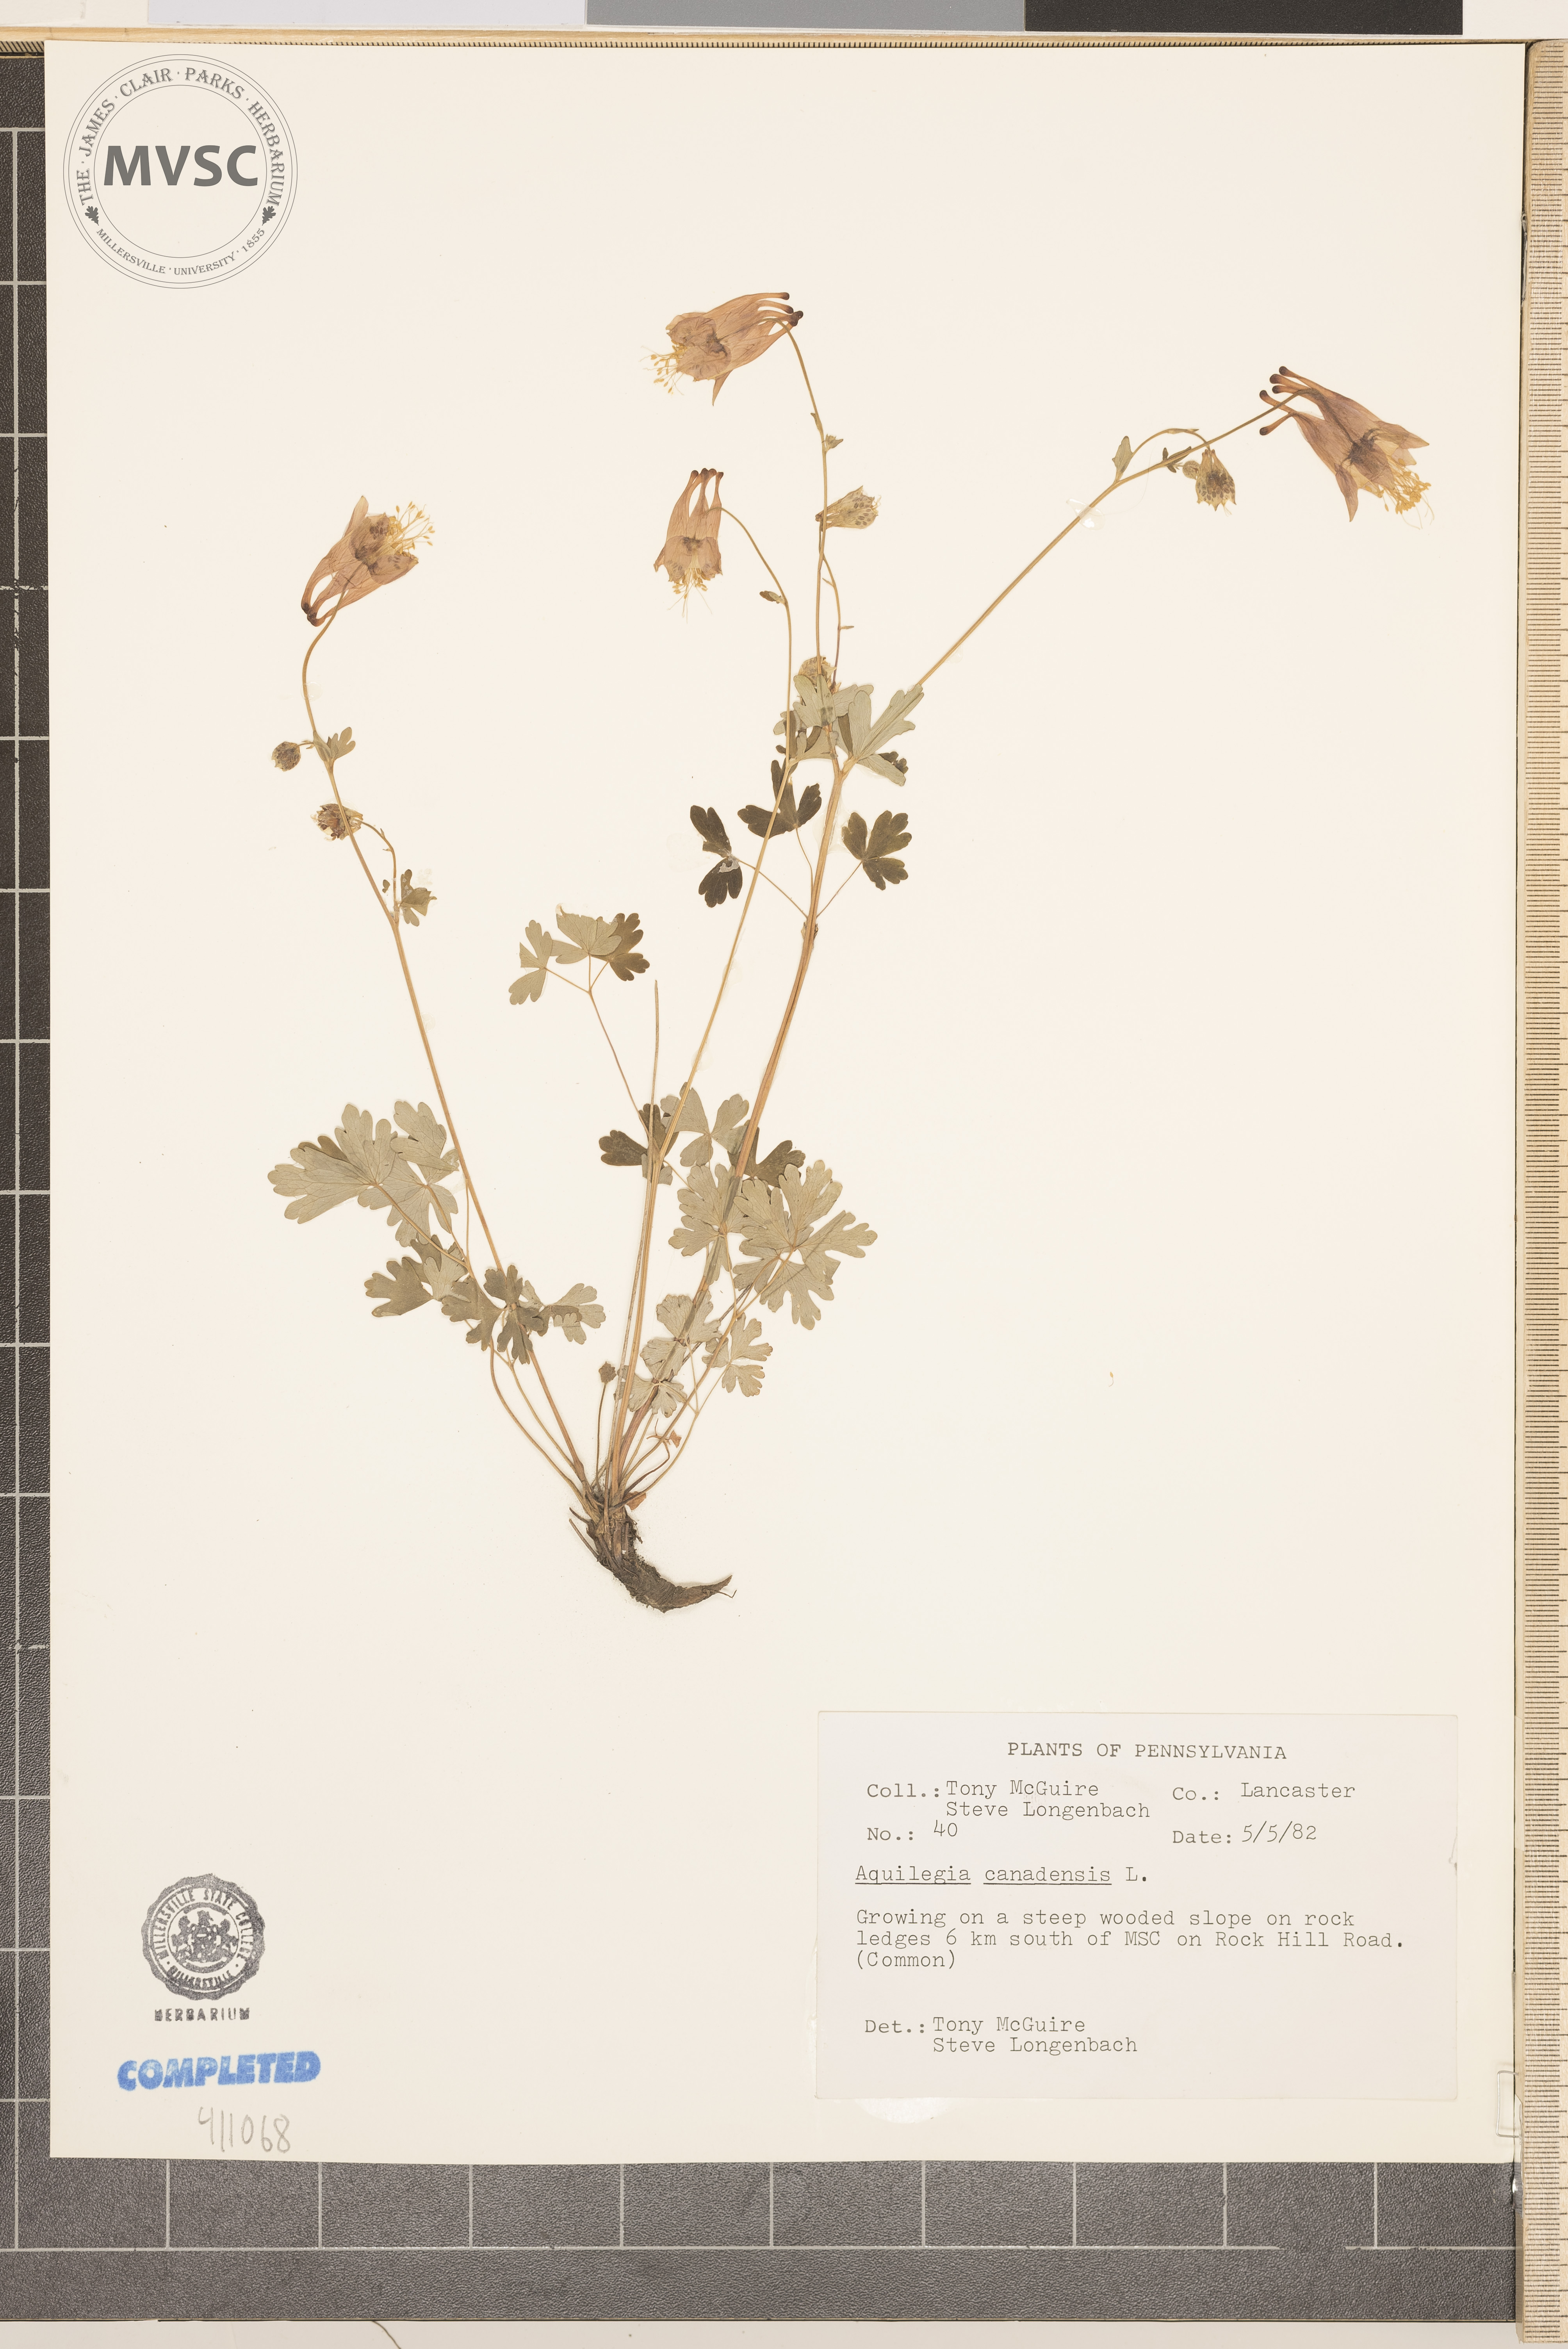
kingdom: Plantae
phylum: Tracheophyta
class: Magnoliopsida
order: Ranunculales
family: Ranunculaceae
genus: Aquilegia
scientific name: Aquilegia canadensis
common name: American columbine
